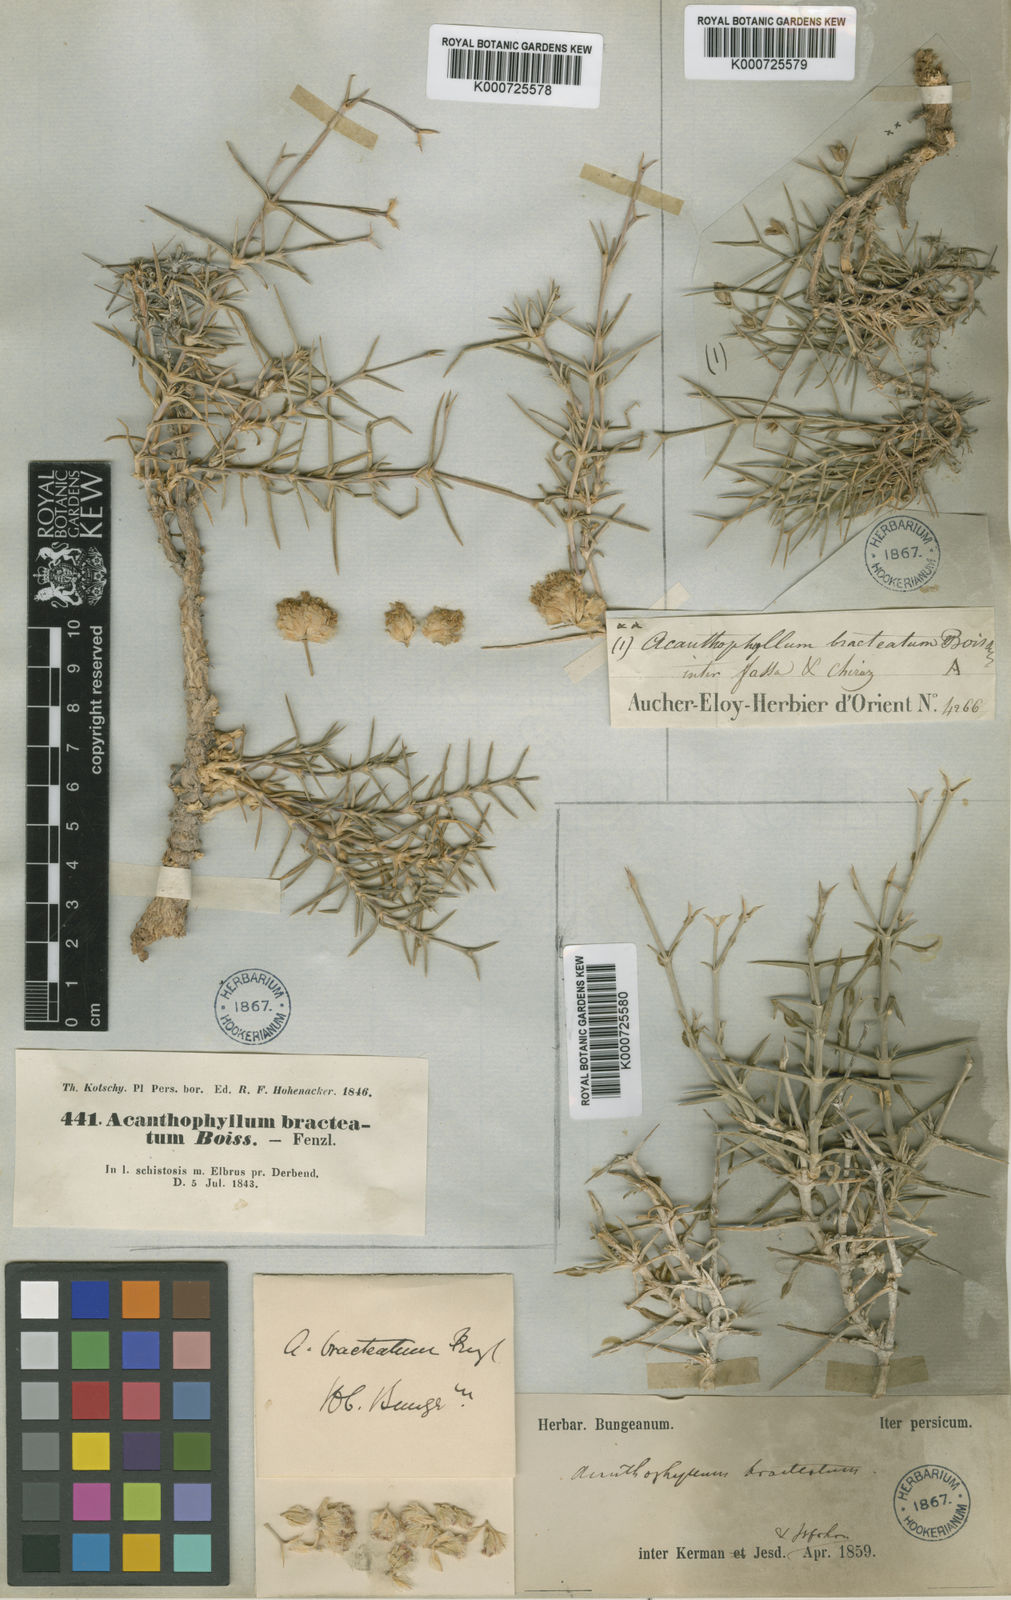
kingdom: Plantae
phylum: Tracheophyta
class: Magnoliopsida
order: Caryophyllales
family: Caryophyllaceae
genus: Acanthophyllum
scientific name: Acanthophyllum bracteatum
